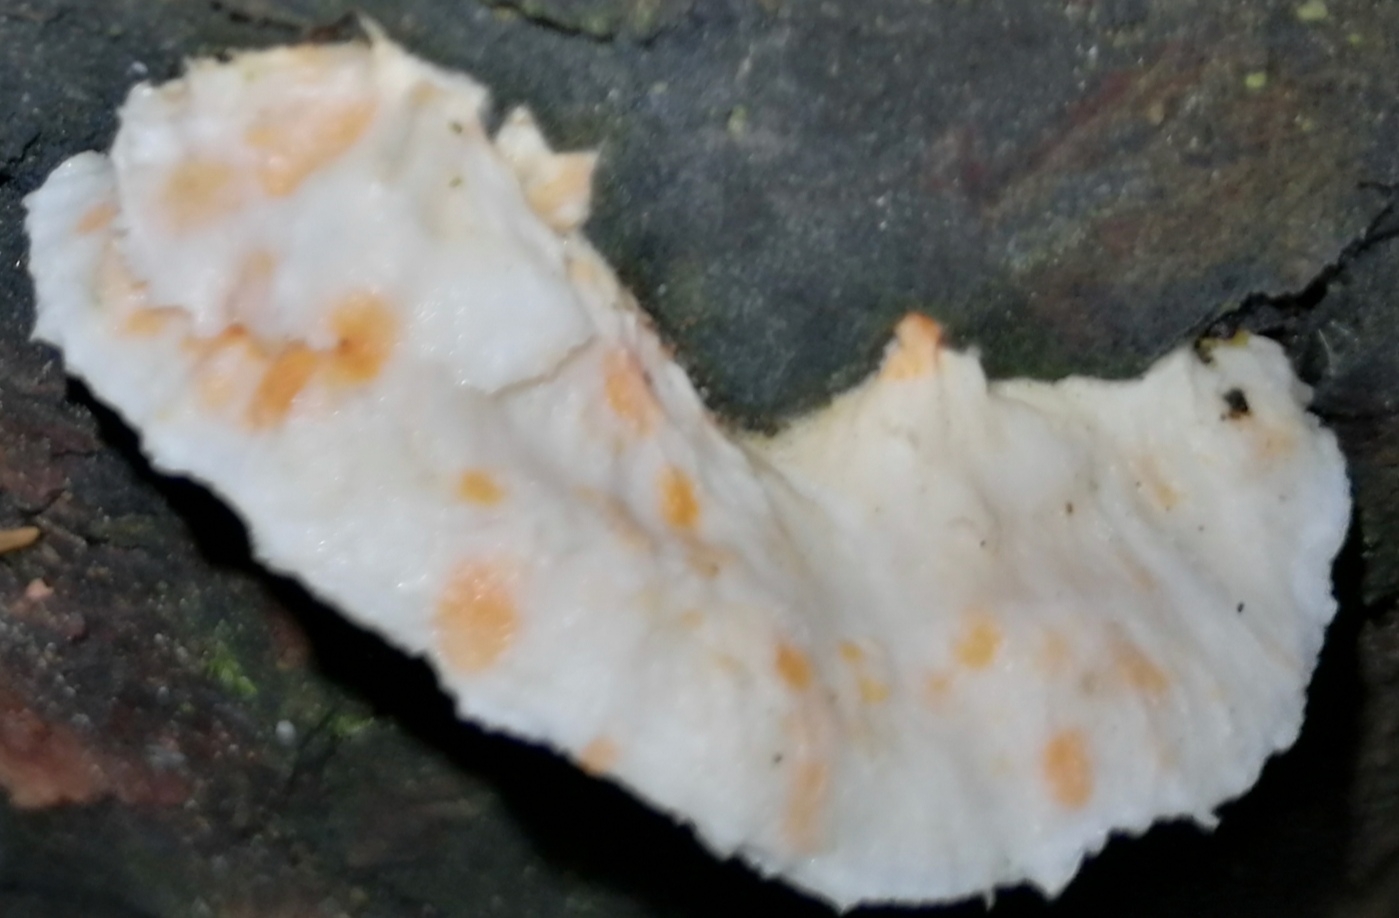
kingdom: Fungi
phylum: Basidiomycota
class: Agaricomycetes
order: Polyporales
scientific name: Polyporales
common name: poresvampordenen
